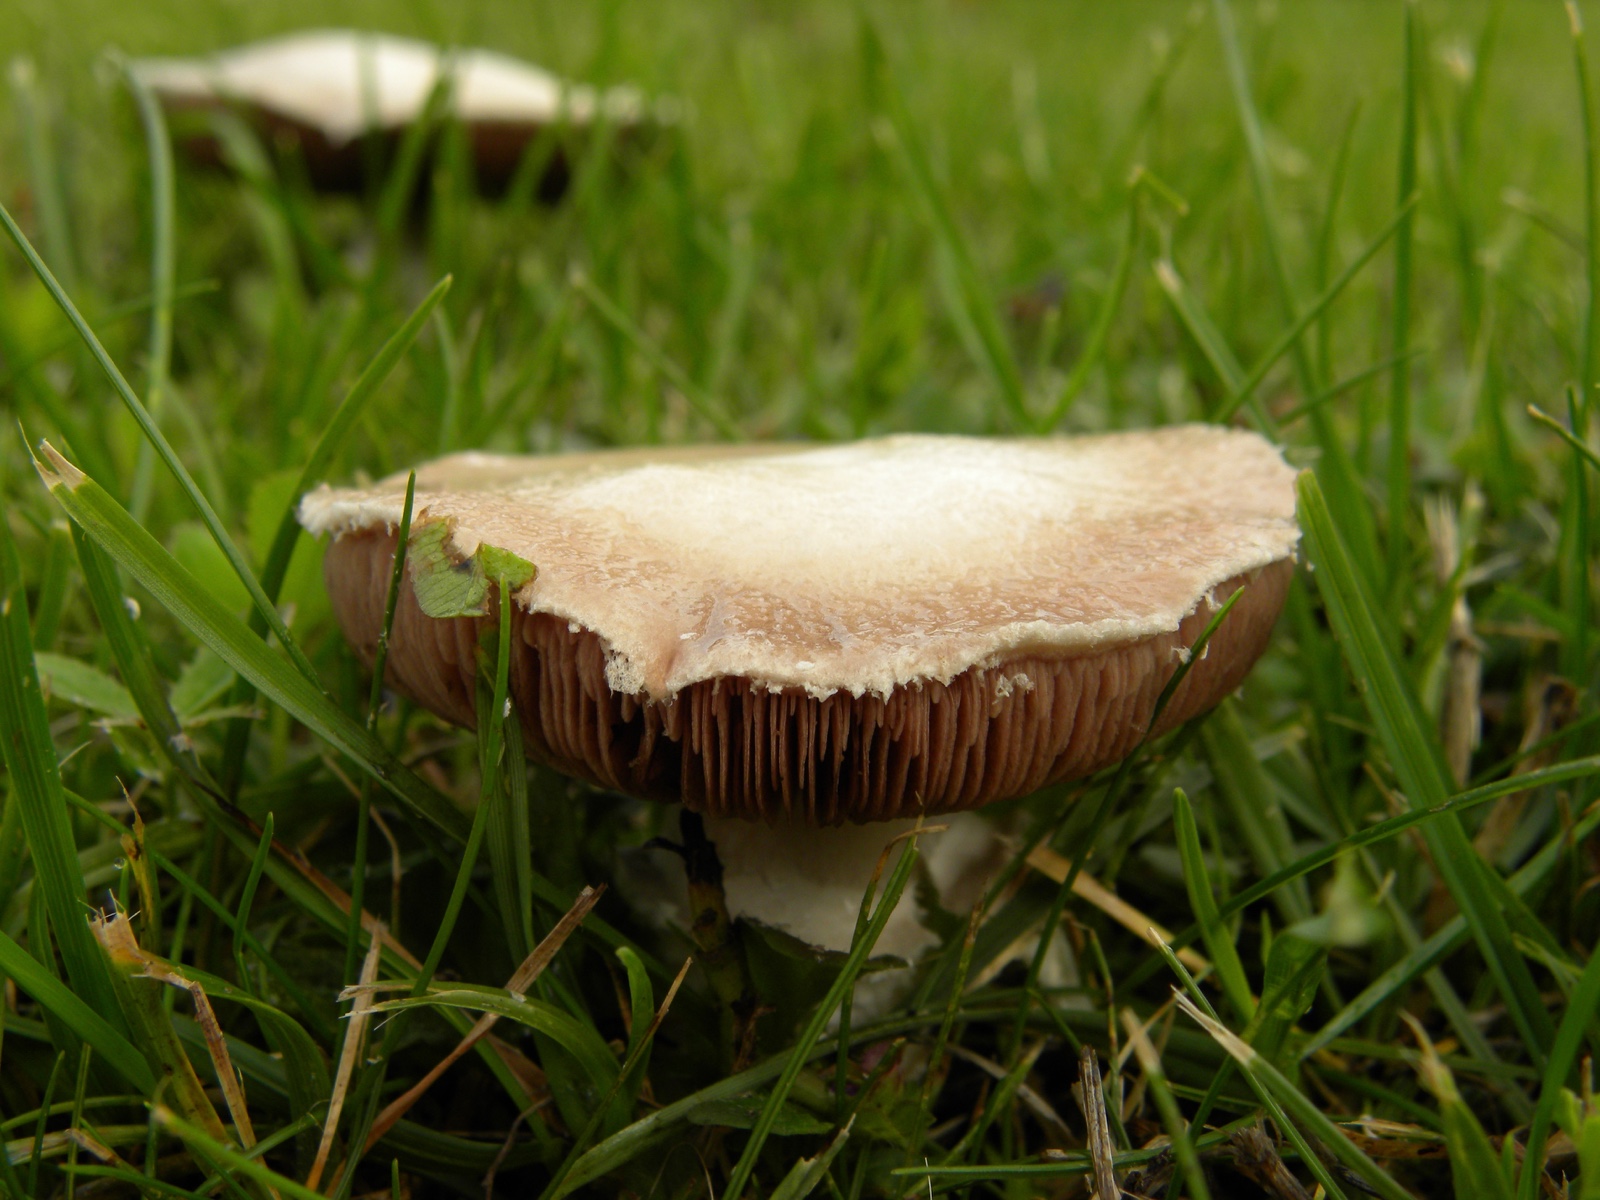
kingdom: Fungi
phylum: Basidiomycota
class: Agaricomycetes
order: Agaricales
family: Agaricaceae
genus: Agaricus
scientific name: Agaricus
